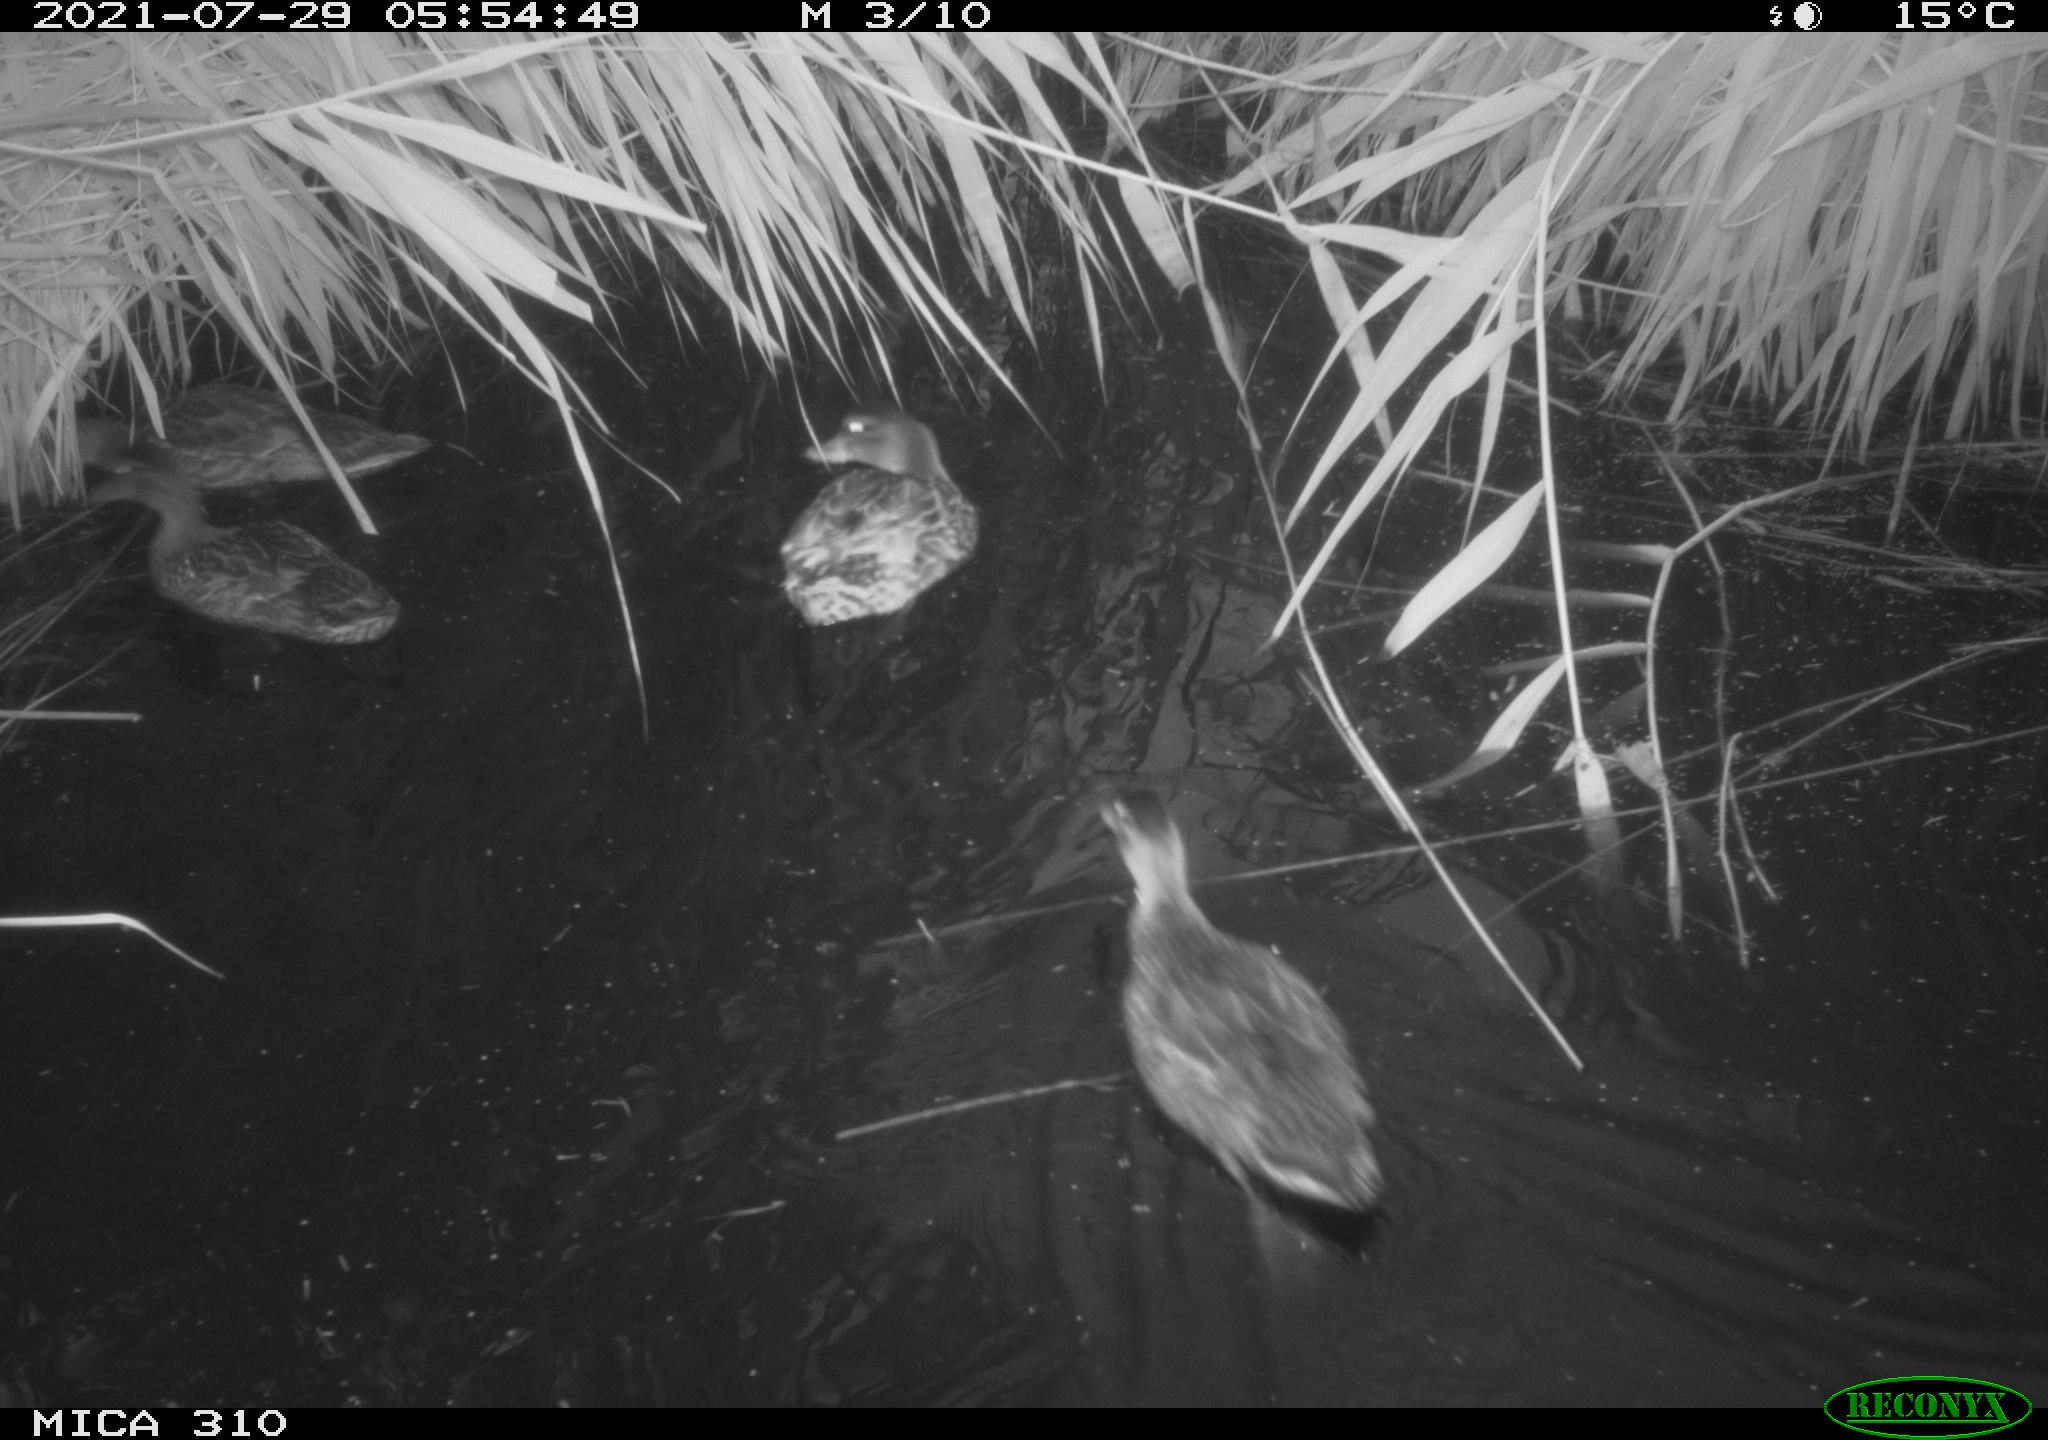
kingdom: Animalia
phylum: Chordata
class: Aves
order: Anseriformes
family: Anatidae
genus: Anas
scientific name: Anas platyrhynchos
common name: Mallard
